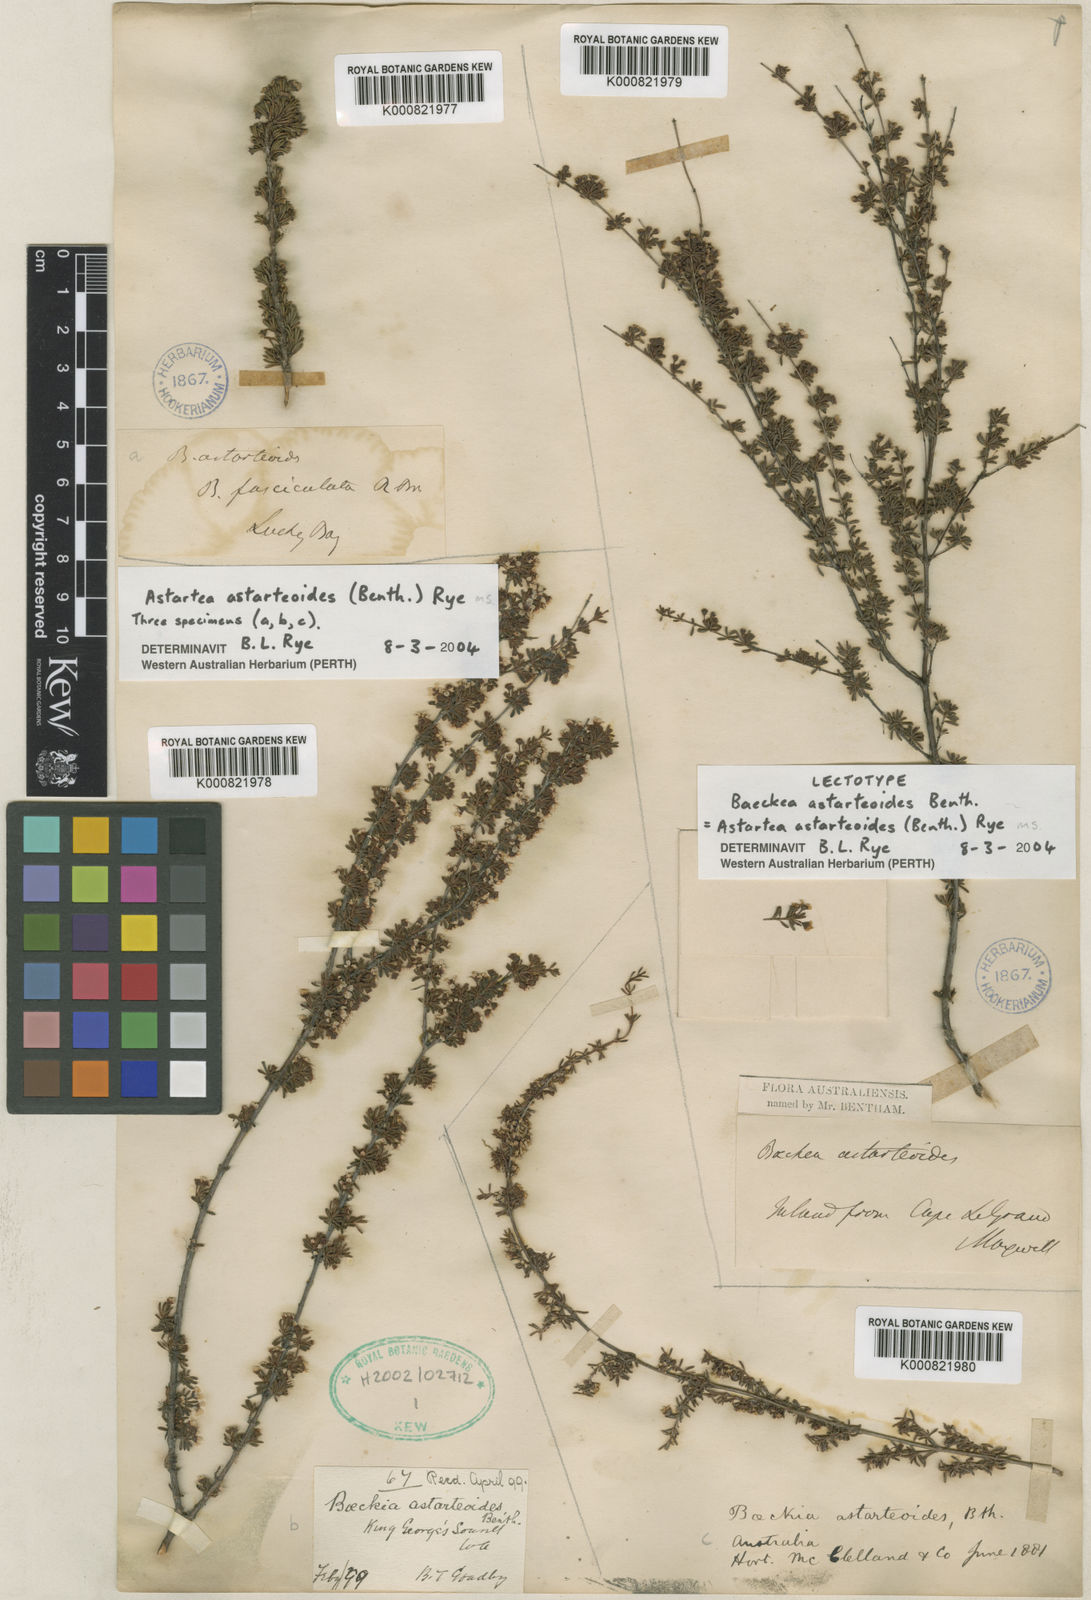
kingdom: Plantae
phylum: Tracheophyta
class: Magnoliopsida
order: Myrtales
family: Myrtaceae
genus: Astartea
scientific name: Astartea astarteoides
